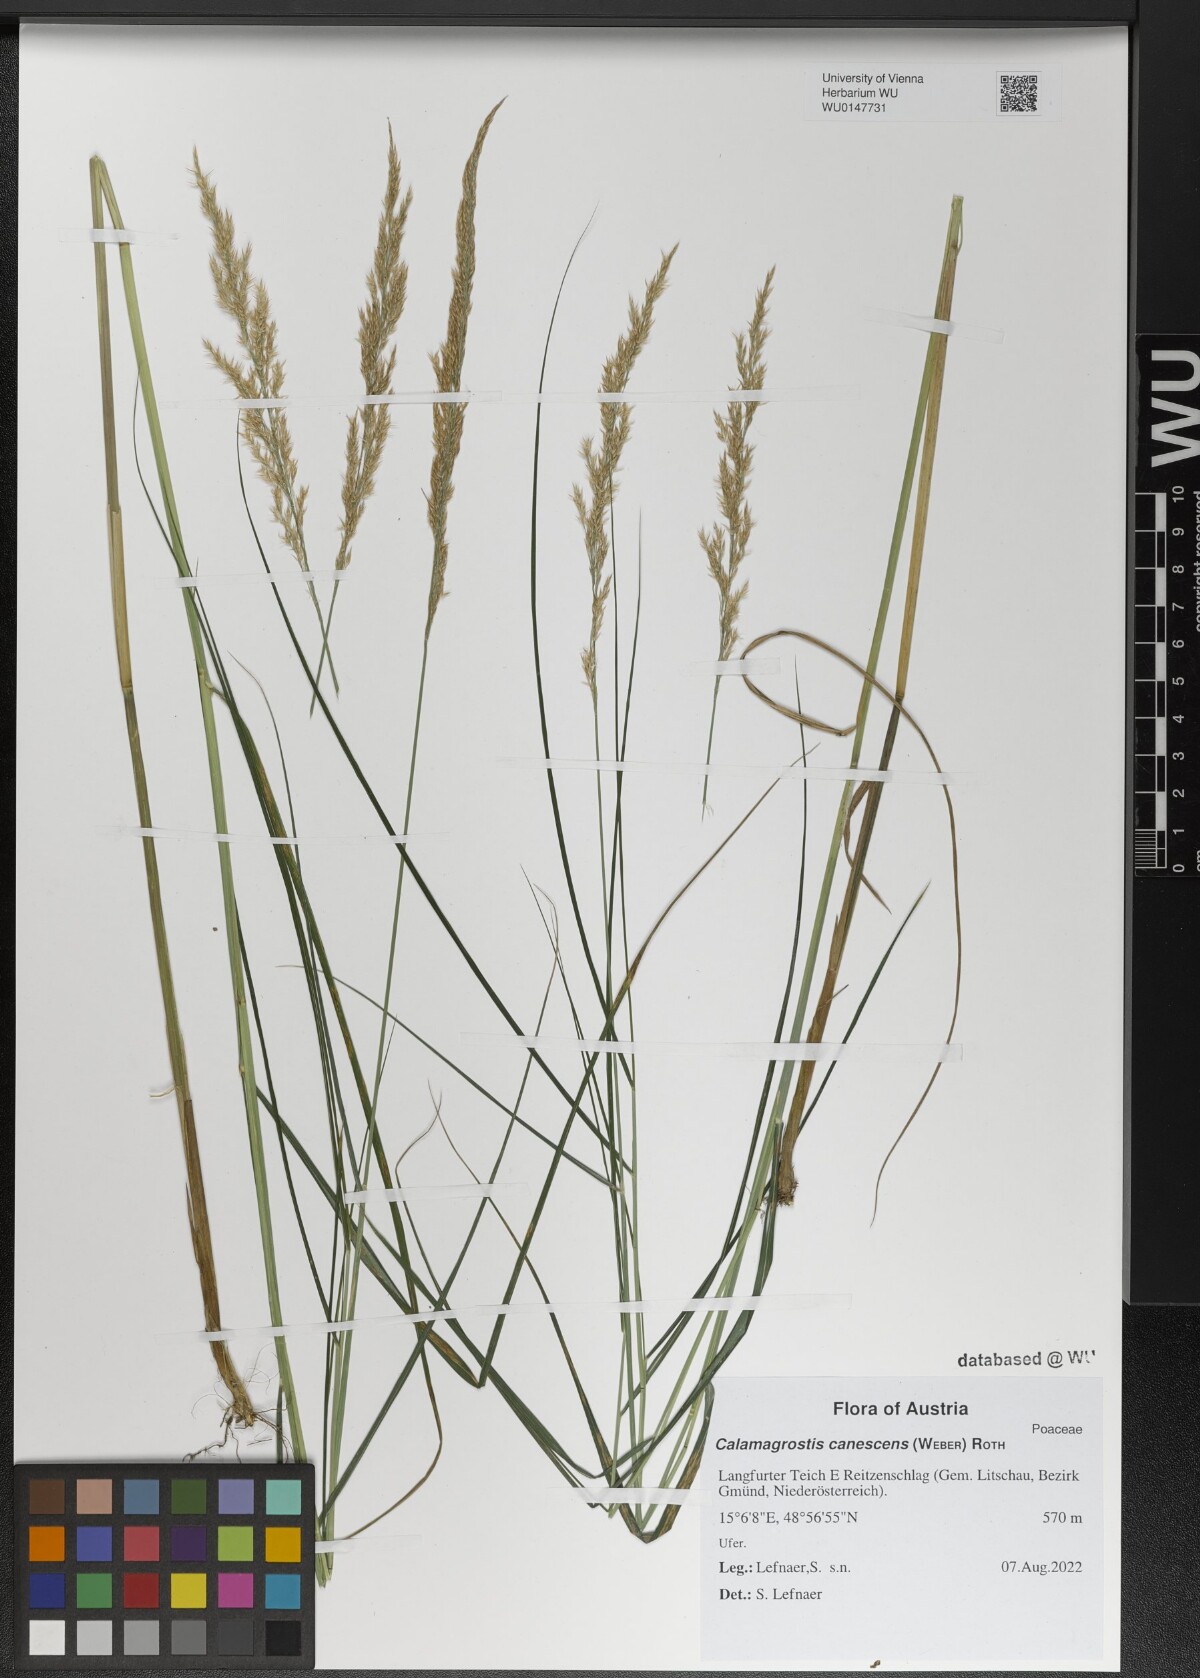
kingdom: Plantae
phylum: Tracheophyta
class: Liliopsida
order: Poales
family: Poaceae
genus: Calamagrostis
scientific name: Calamagrostis canescens
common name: Purple small-reed
